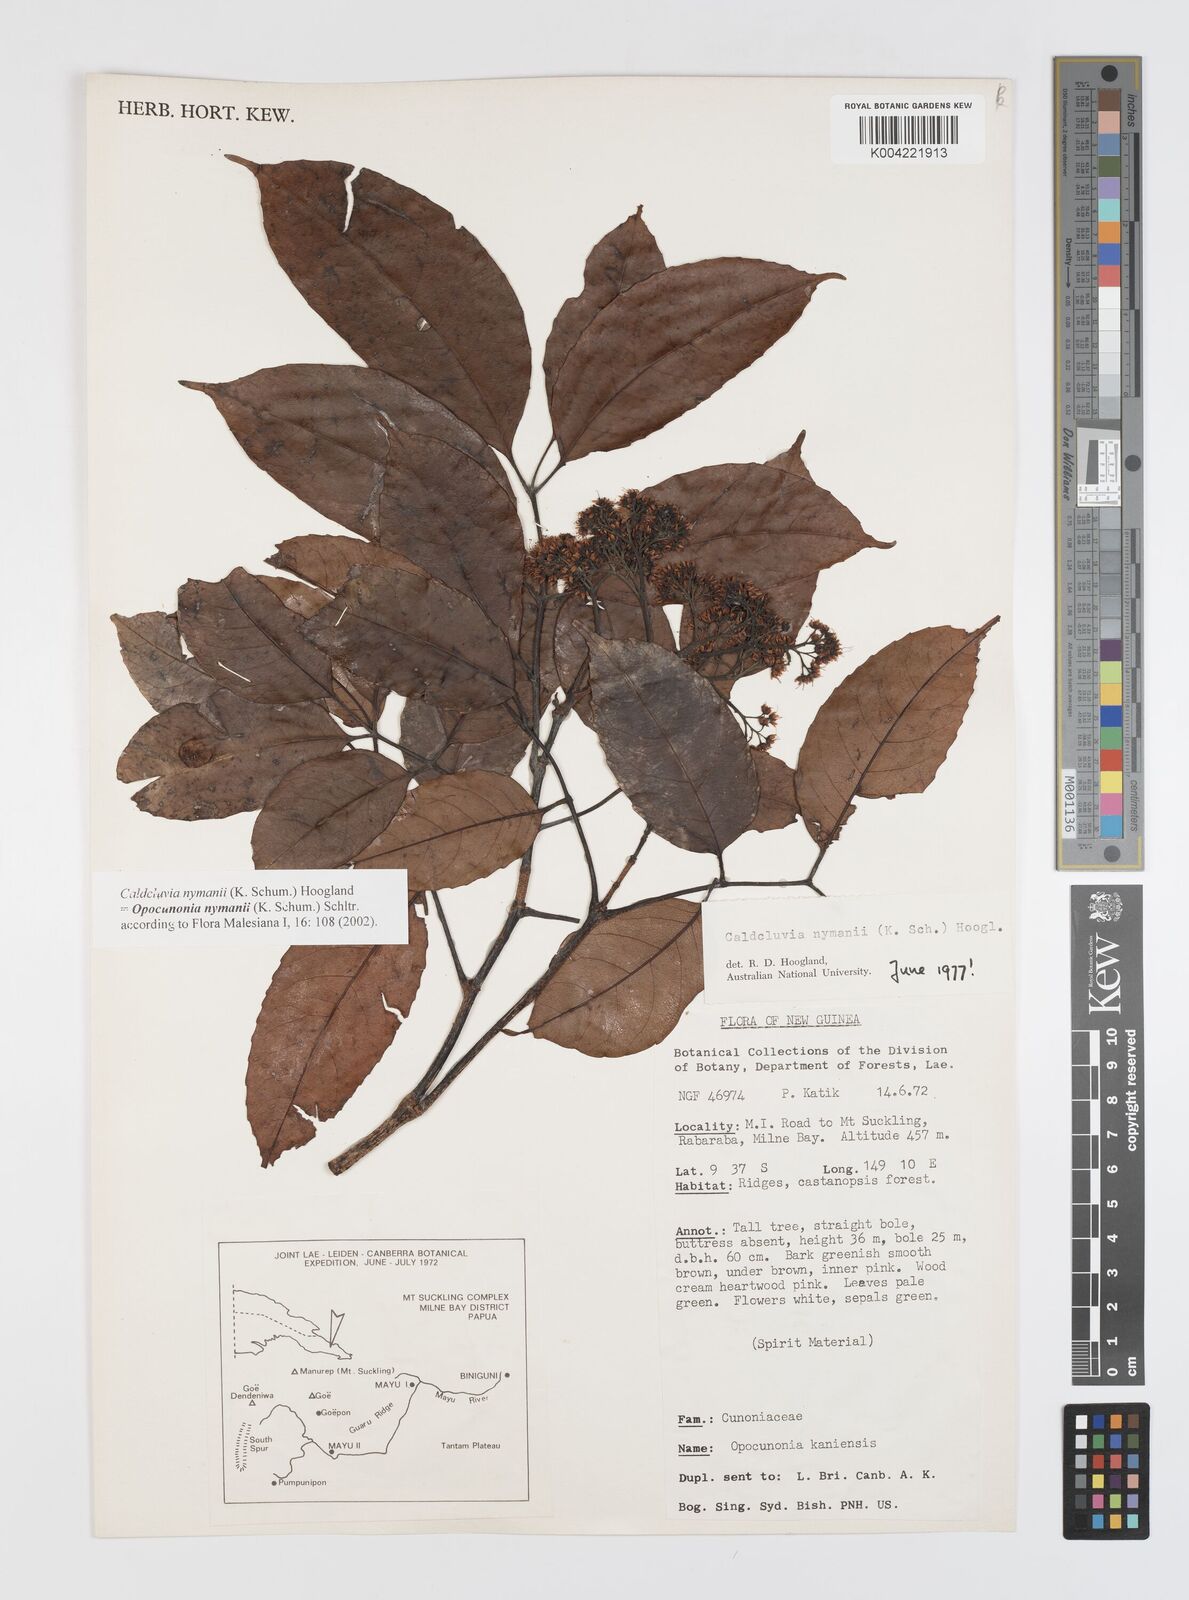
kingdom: Plantae
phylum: Tracheophyta
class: Magnoliopsida
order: Oxalidales
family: Cunoniaceae
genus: Opocunonia
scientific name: Opocunonia nymanii
